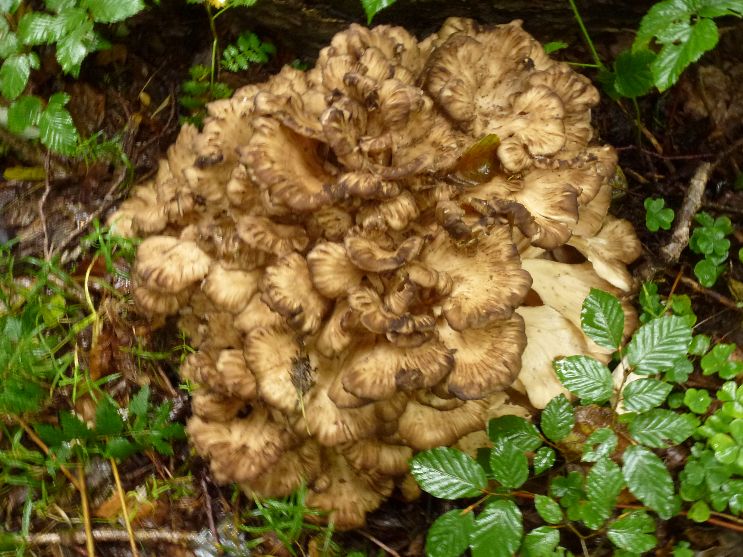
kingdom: Fungi
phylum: Basidiomycota
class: Agaricomycetes
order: Polyporales
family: Grifolaceae
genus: Grifola
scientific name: Grifola frondosa
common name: tueporesvamp
